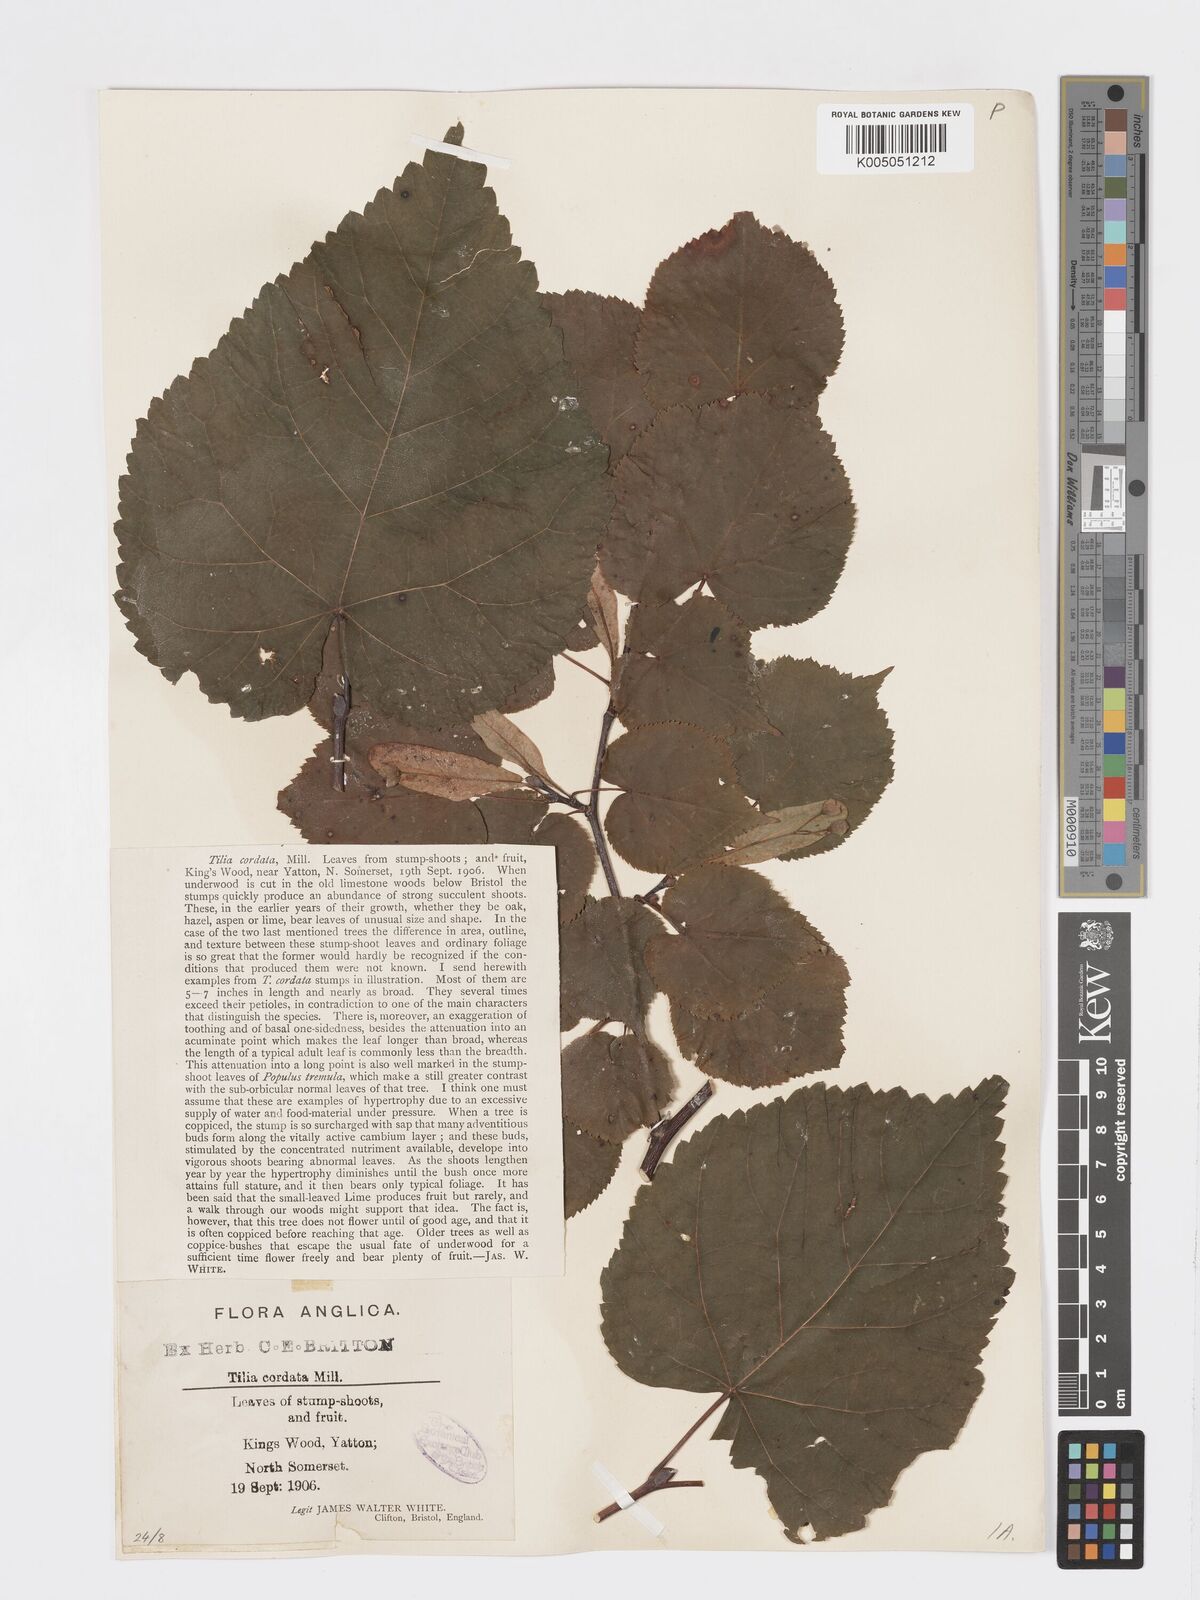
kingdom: Plantae
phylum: Tracheophyta
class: Magnoliopsida
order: Malvales
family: Malvaceae
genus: Tilia
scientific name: Tilia cordata
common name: Small-leaved lime
